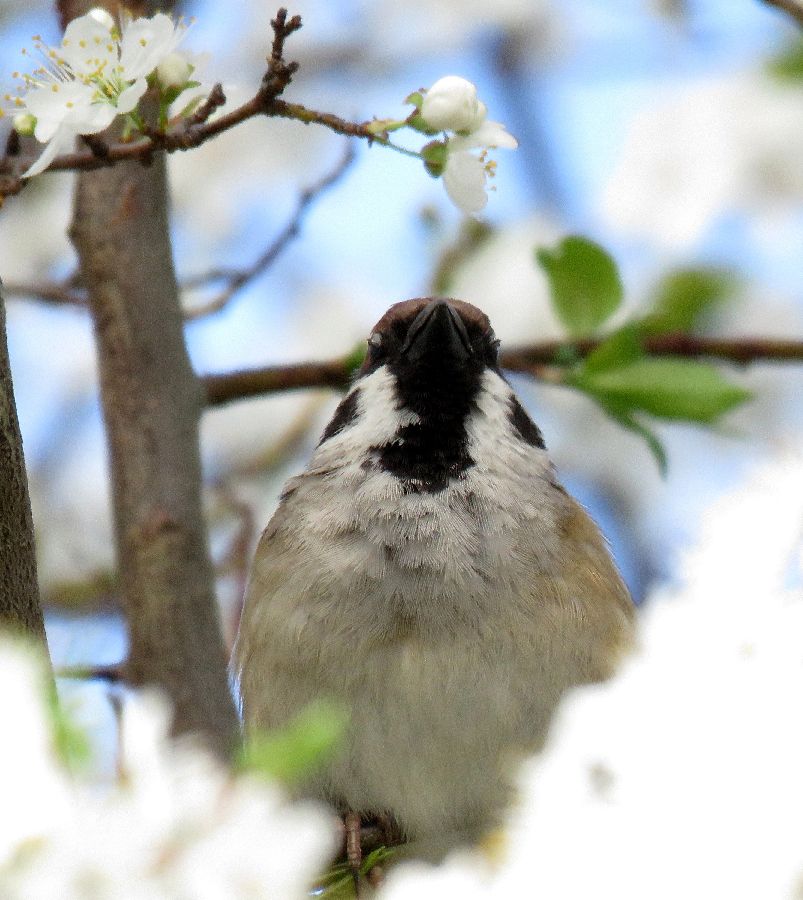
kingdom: Animalia
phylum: Chordata
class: Aves
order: Passeriformes
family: Passeridae
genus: Passer
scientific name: Passer montanus
